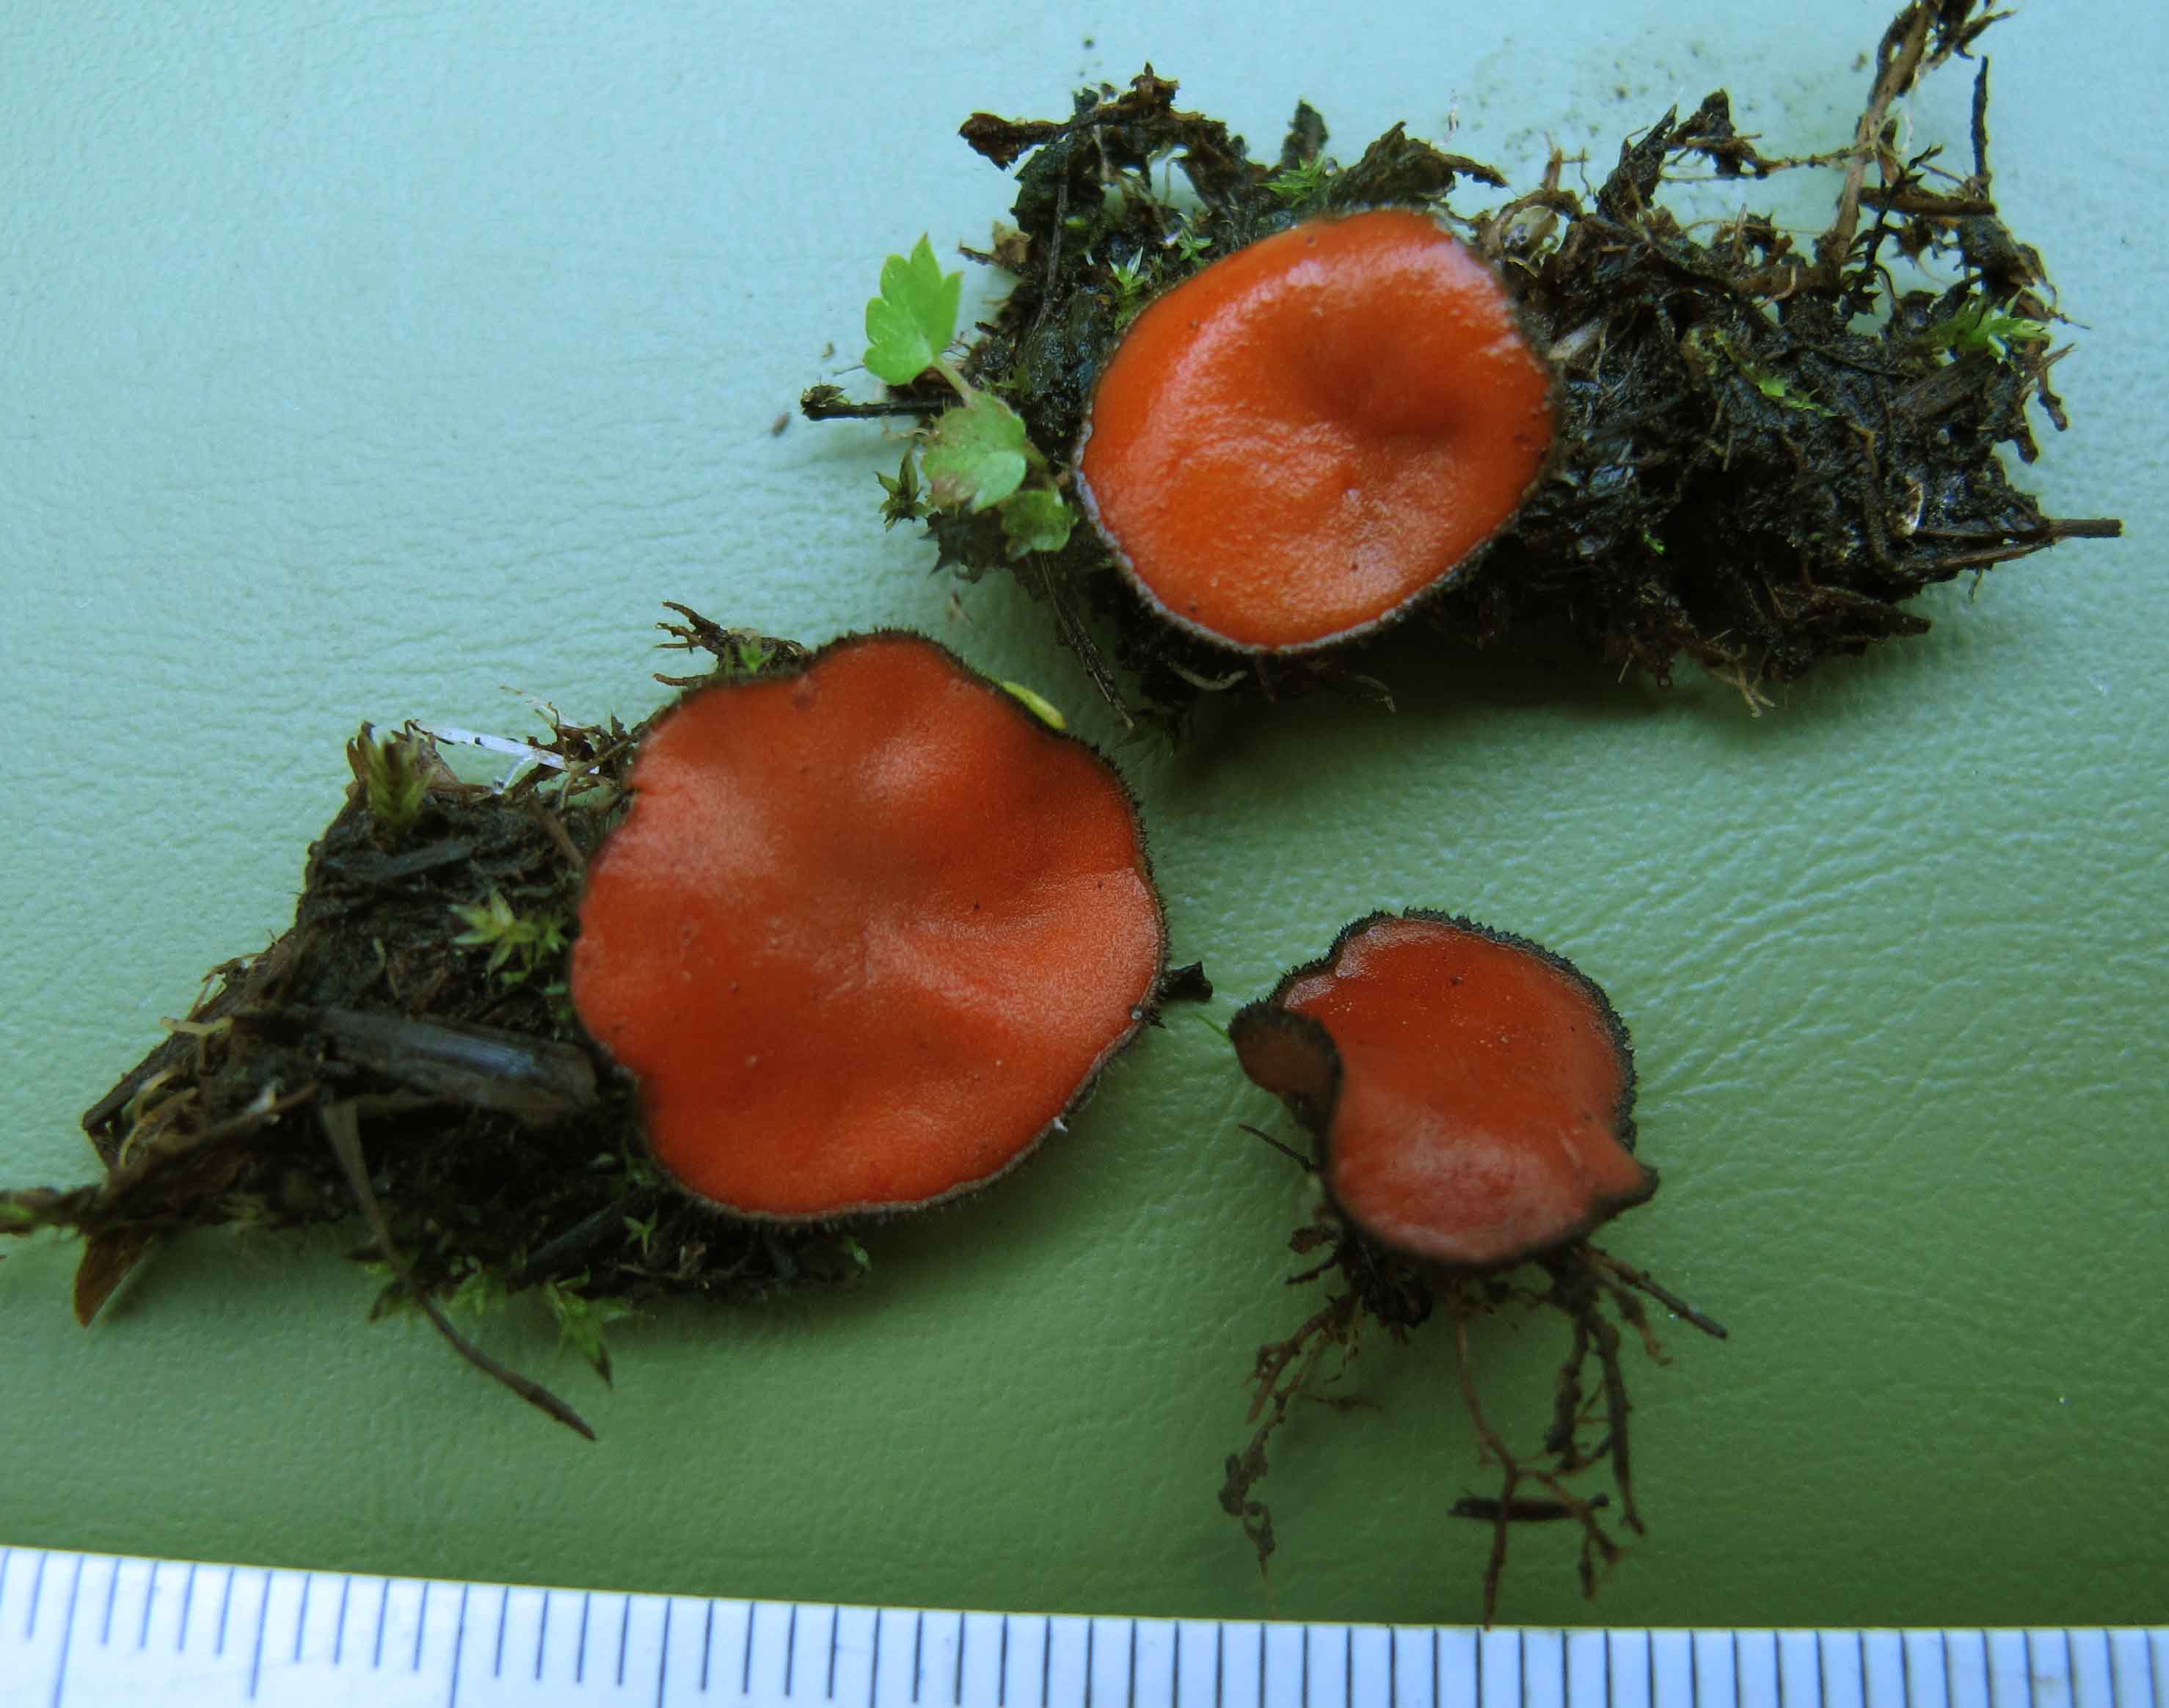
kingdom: Fungi
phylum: Ascomycota
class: Pezizomycetes
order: Pezizales
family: Pyronemataceae
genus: Scutellinia
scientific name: Scutellinia subhirtella
